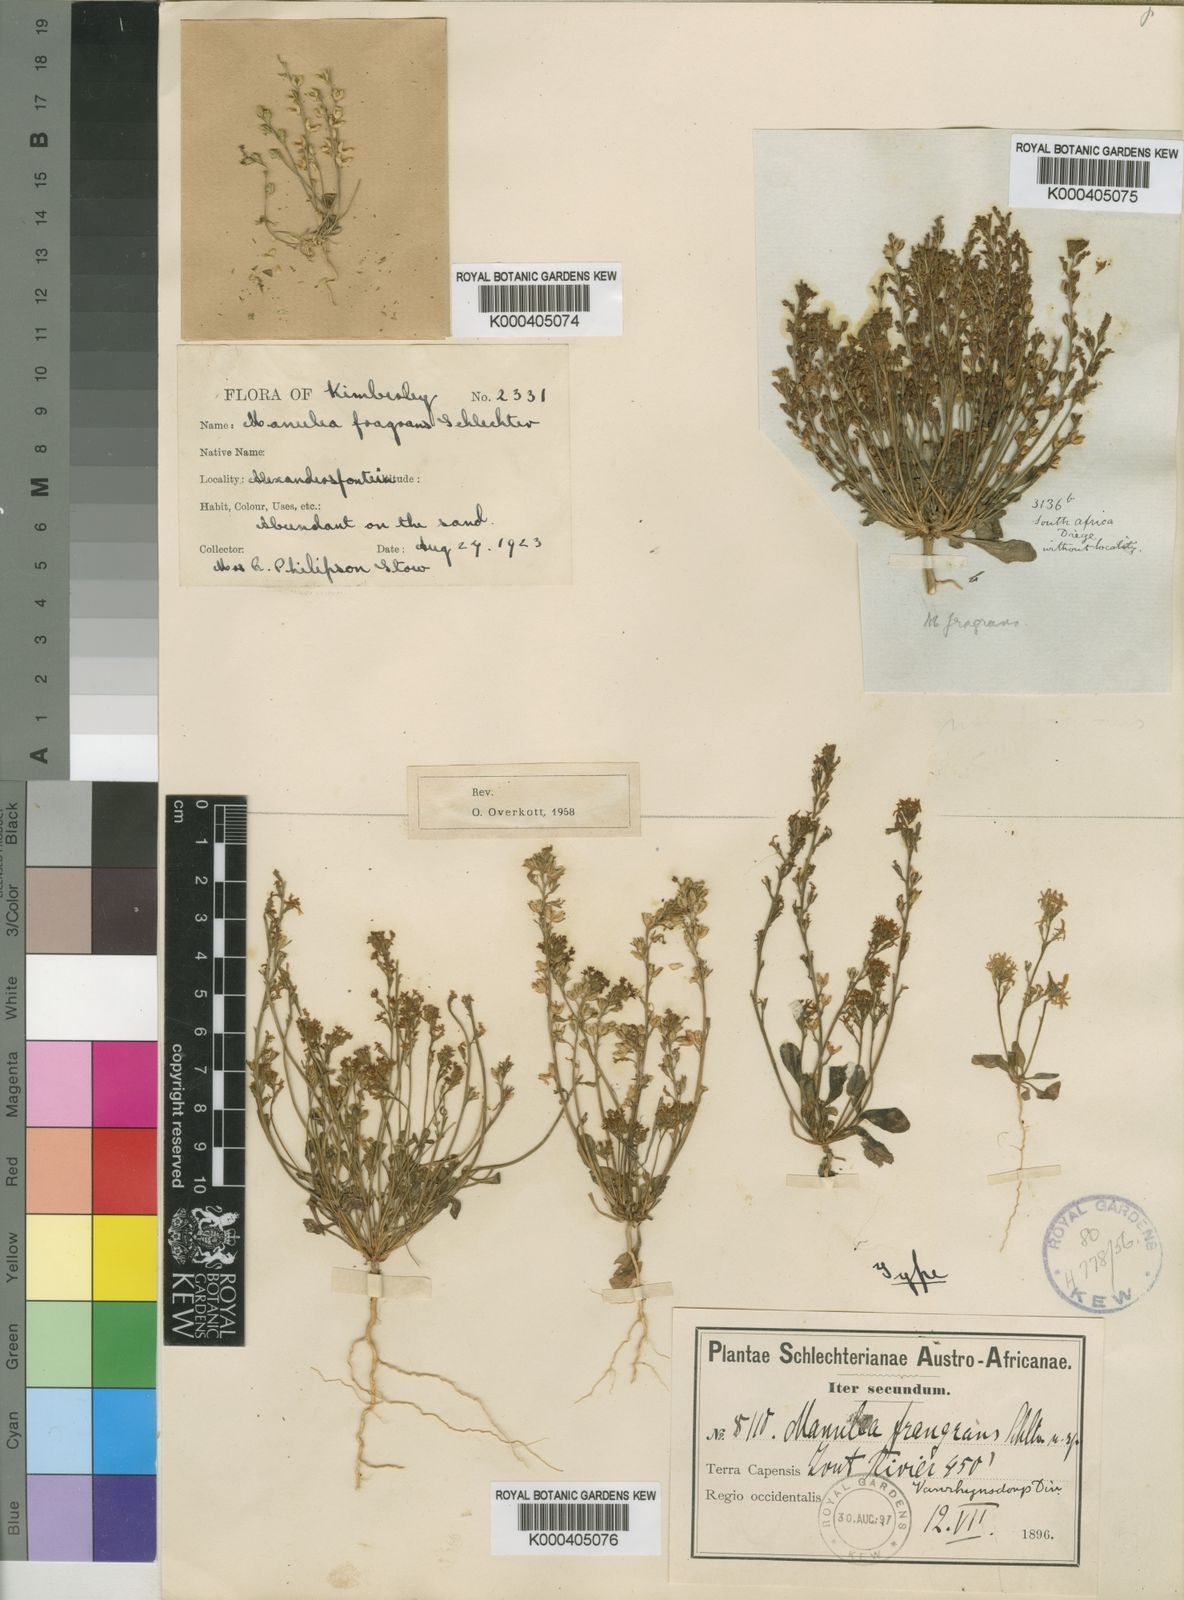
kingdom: Plantae
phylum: Tracheophyta
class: Magnoliopsida
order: Lamiales
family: Scrophulariaceae
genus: Manulea
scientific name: Manulea fragrans
